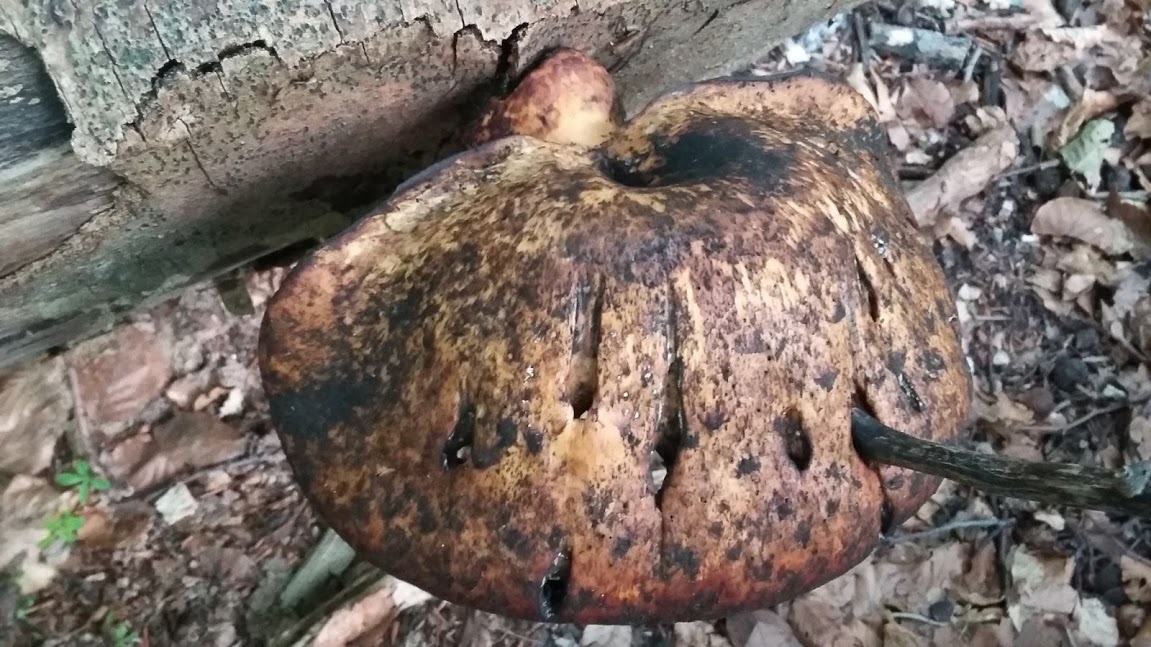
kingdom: Fungi
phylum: Basidiomycota
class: Agaricomycetes
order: Polyporales
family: Polyporaceae
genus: Cerioporus
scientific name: Cerioporus squamosus
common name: skællet stilkporesvamp
